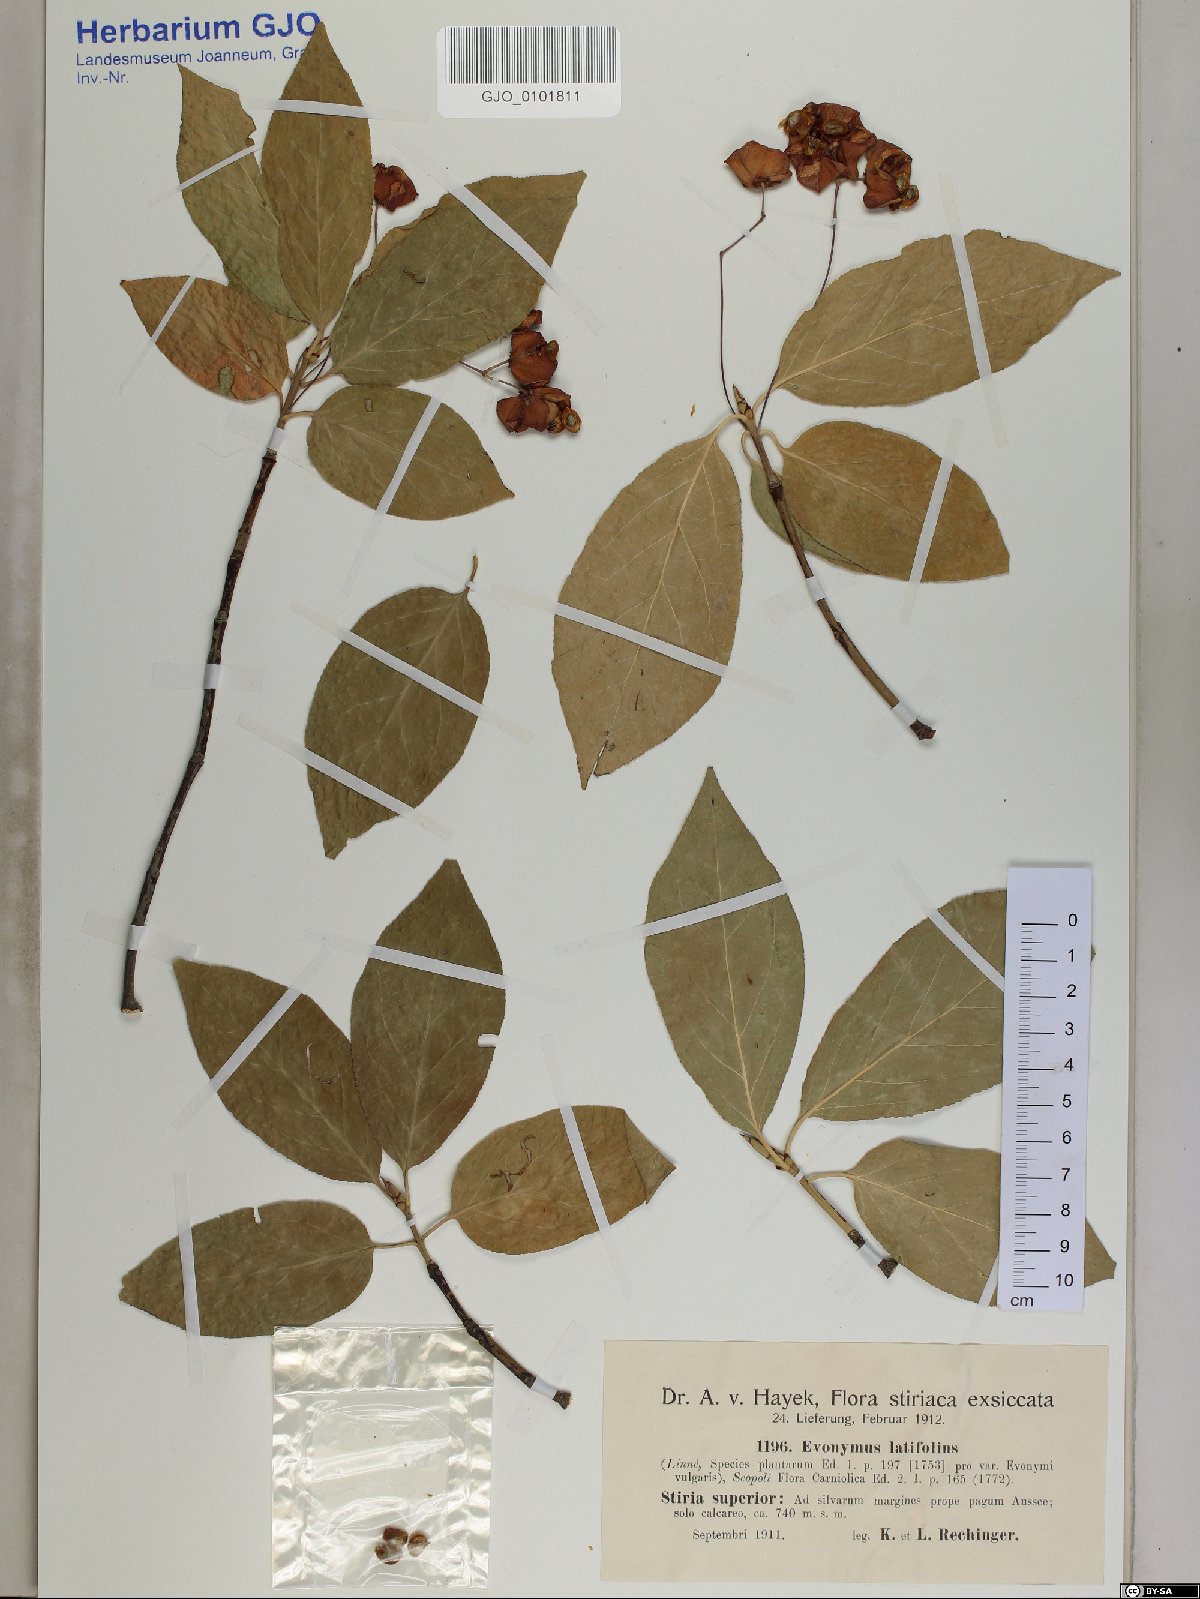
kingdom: Plantae
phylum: Tracheophyta
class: Magnoliopsida
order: Celastrales
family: Celastraceae
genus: Euonymus
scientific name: Euonymus latifolius
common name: Large-leaved spindle
